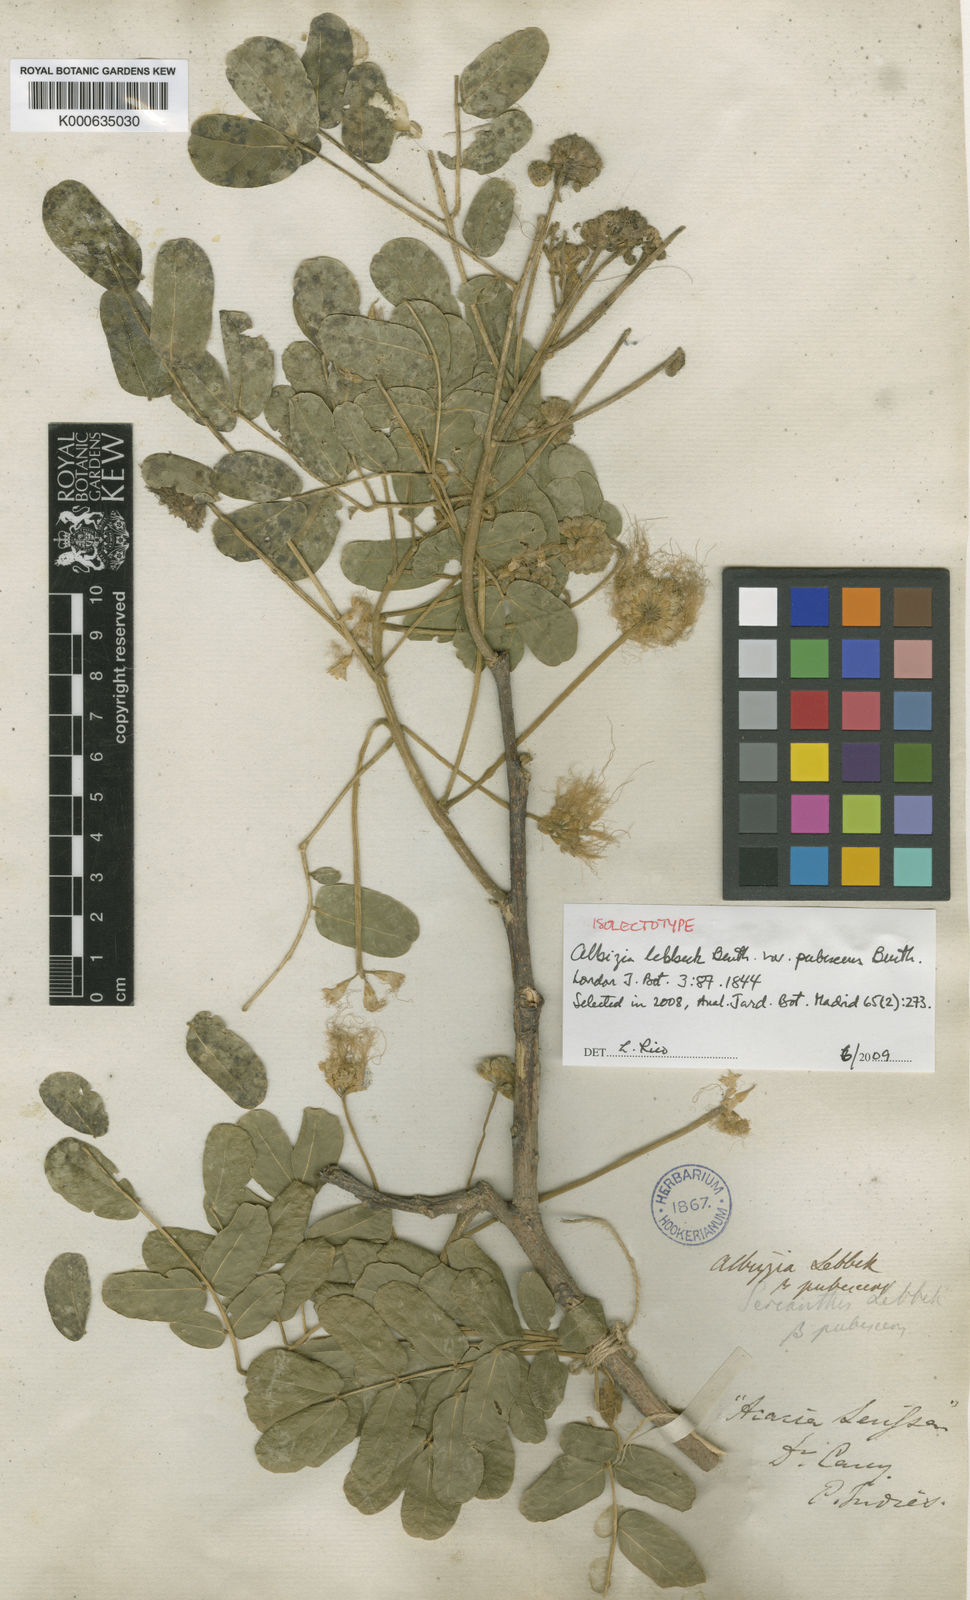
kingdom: Plantae
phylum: Tracheophyta
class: Magnoliopsida
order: Fabales
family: Fabaceae
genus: Albizia
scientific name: Albizia
